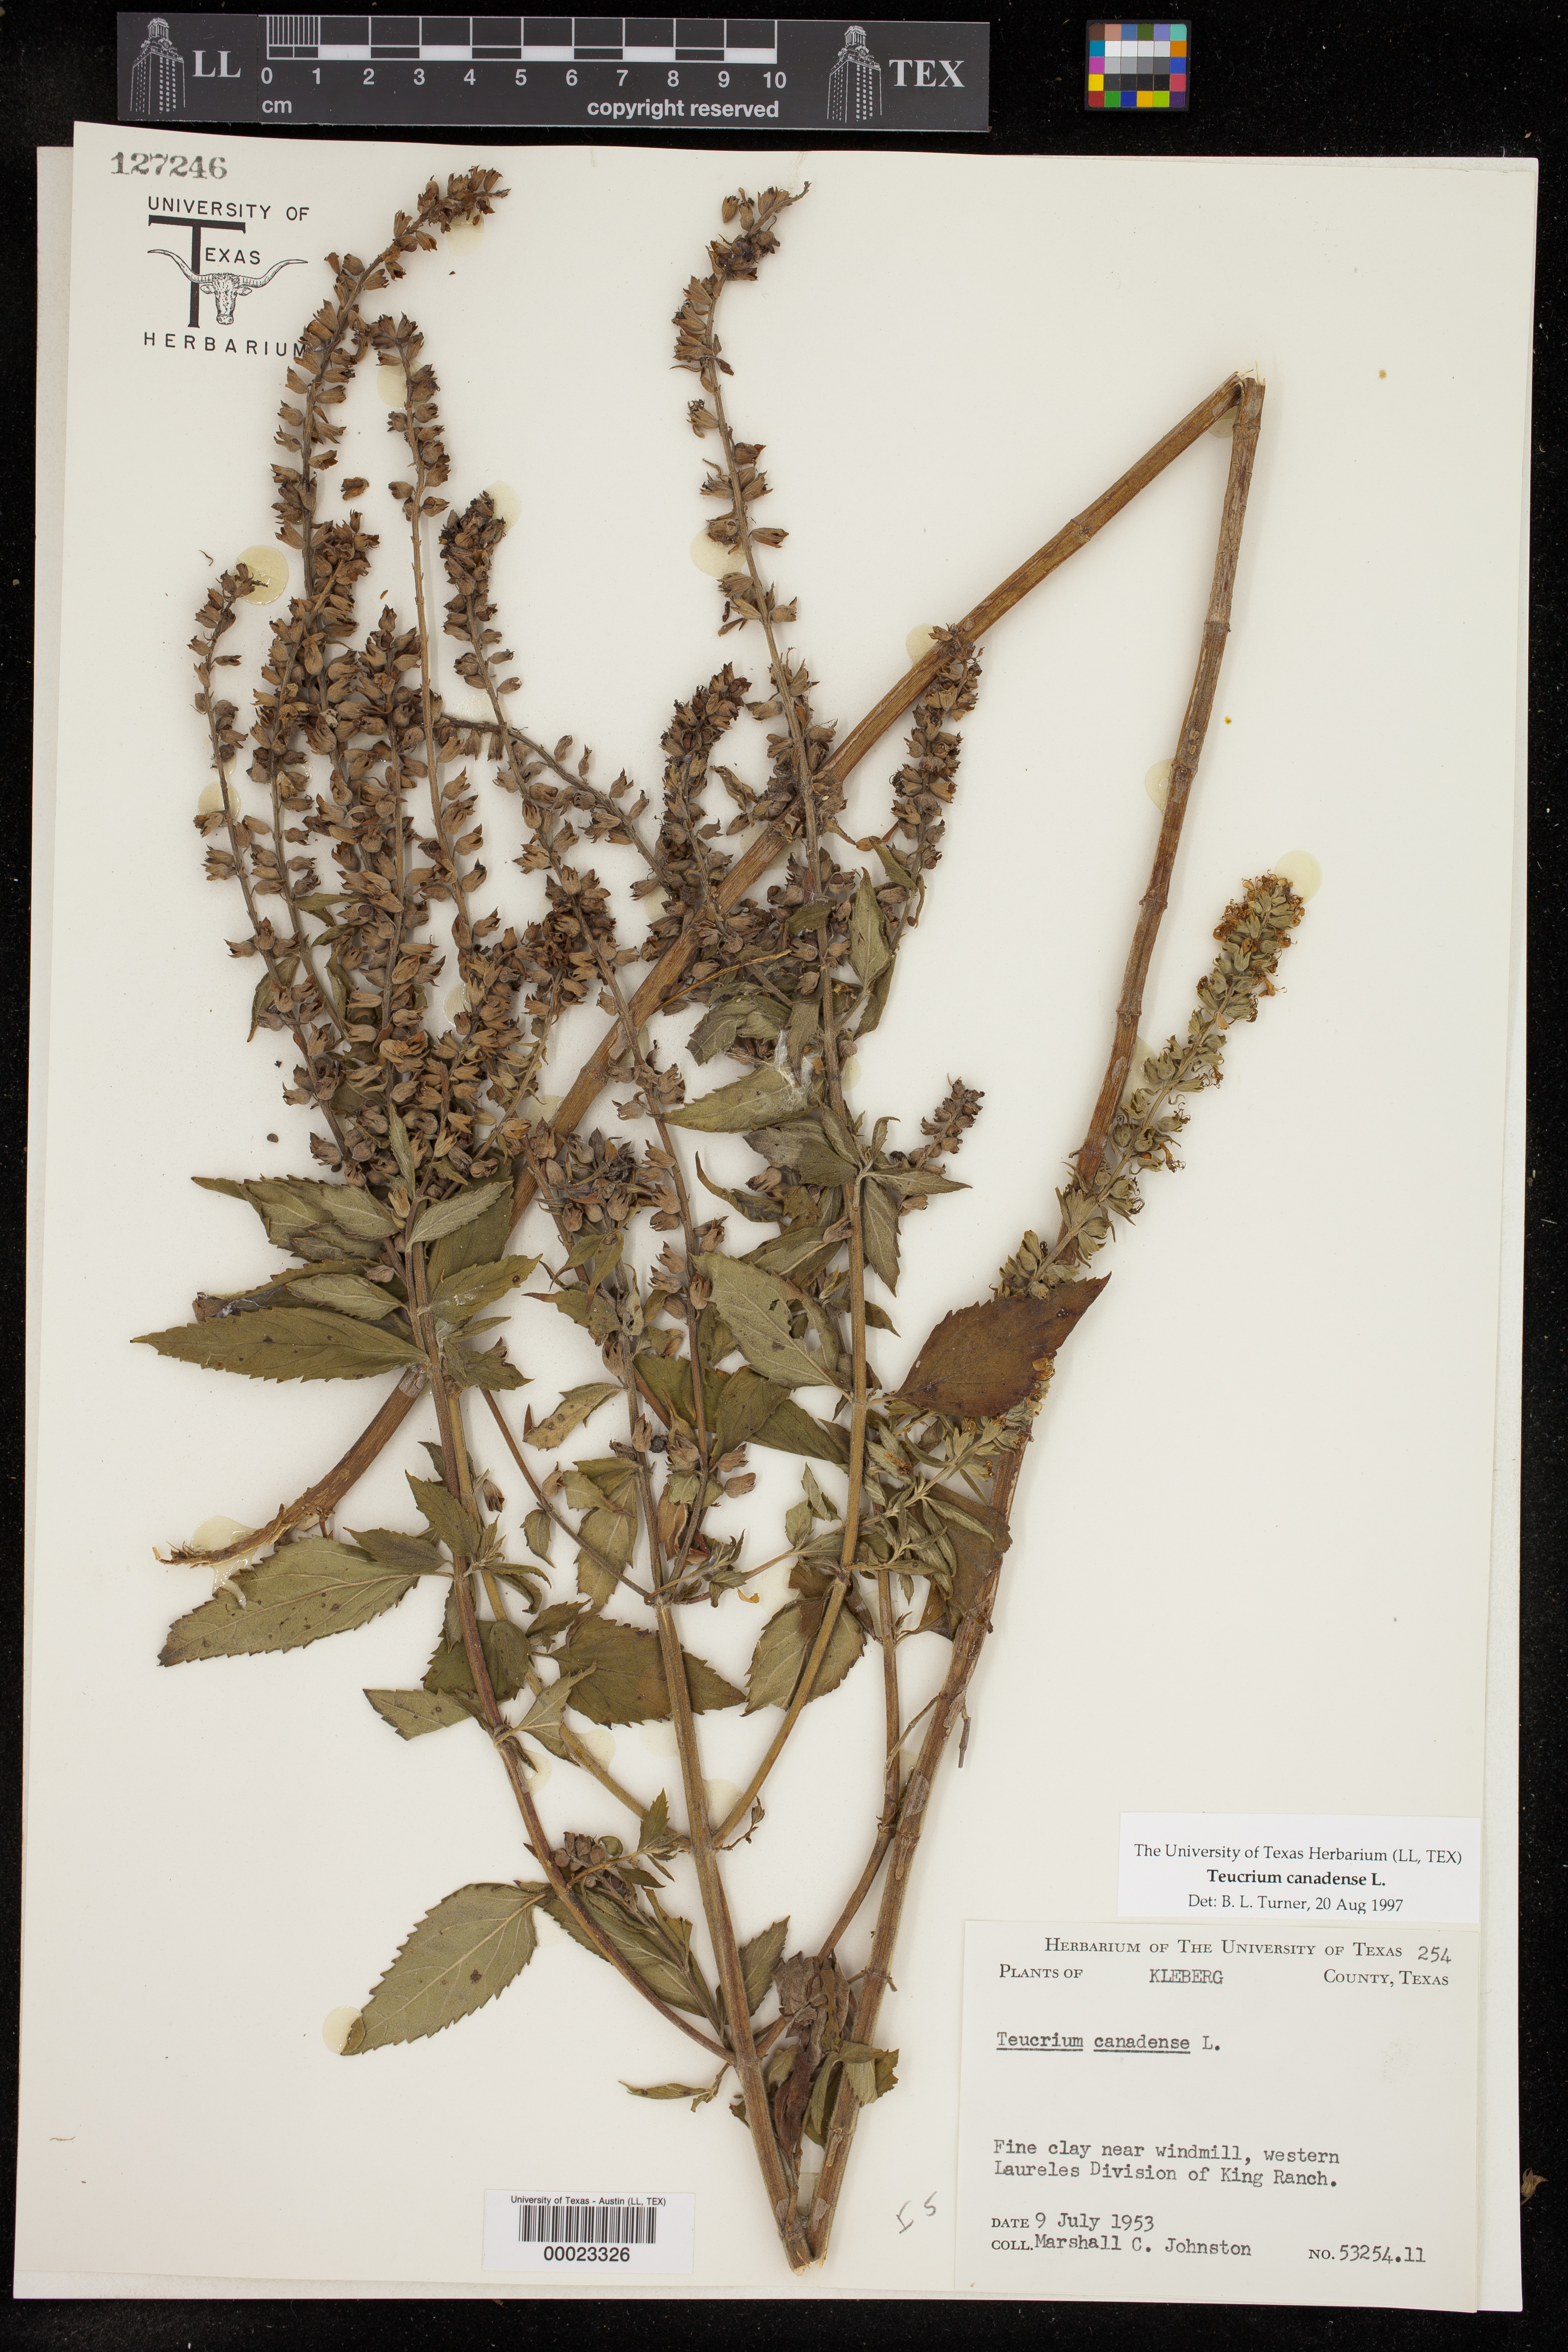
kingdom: Plantae
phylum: Tracheophyta
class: Magnoliopsida
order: Lamiales
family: Lamiaceae
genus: Teucrium
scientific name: Teucrium canadense
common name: American germander
